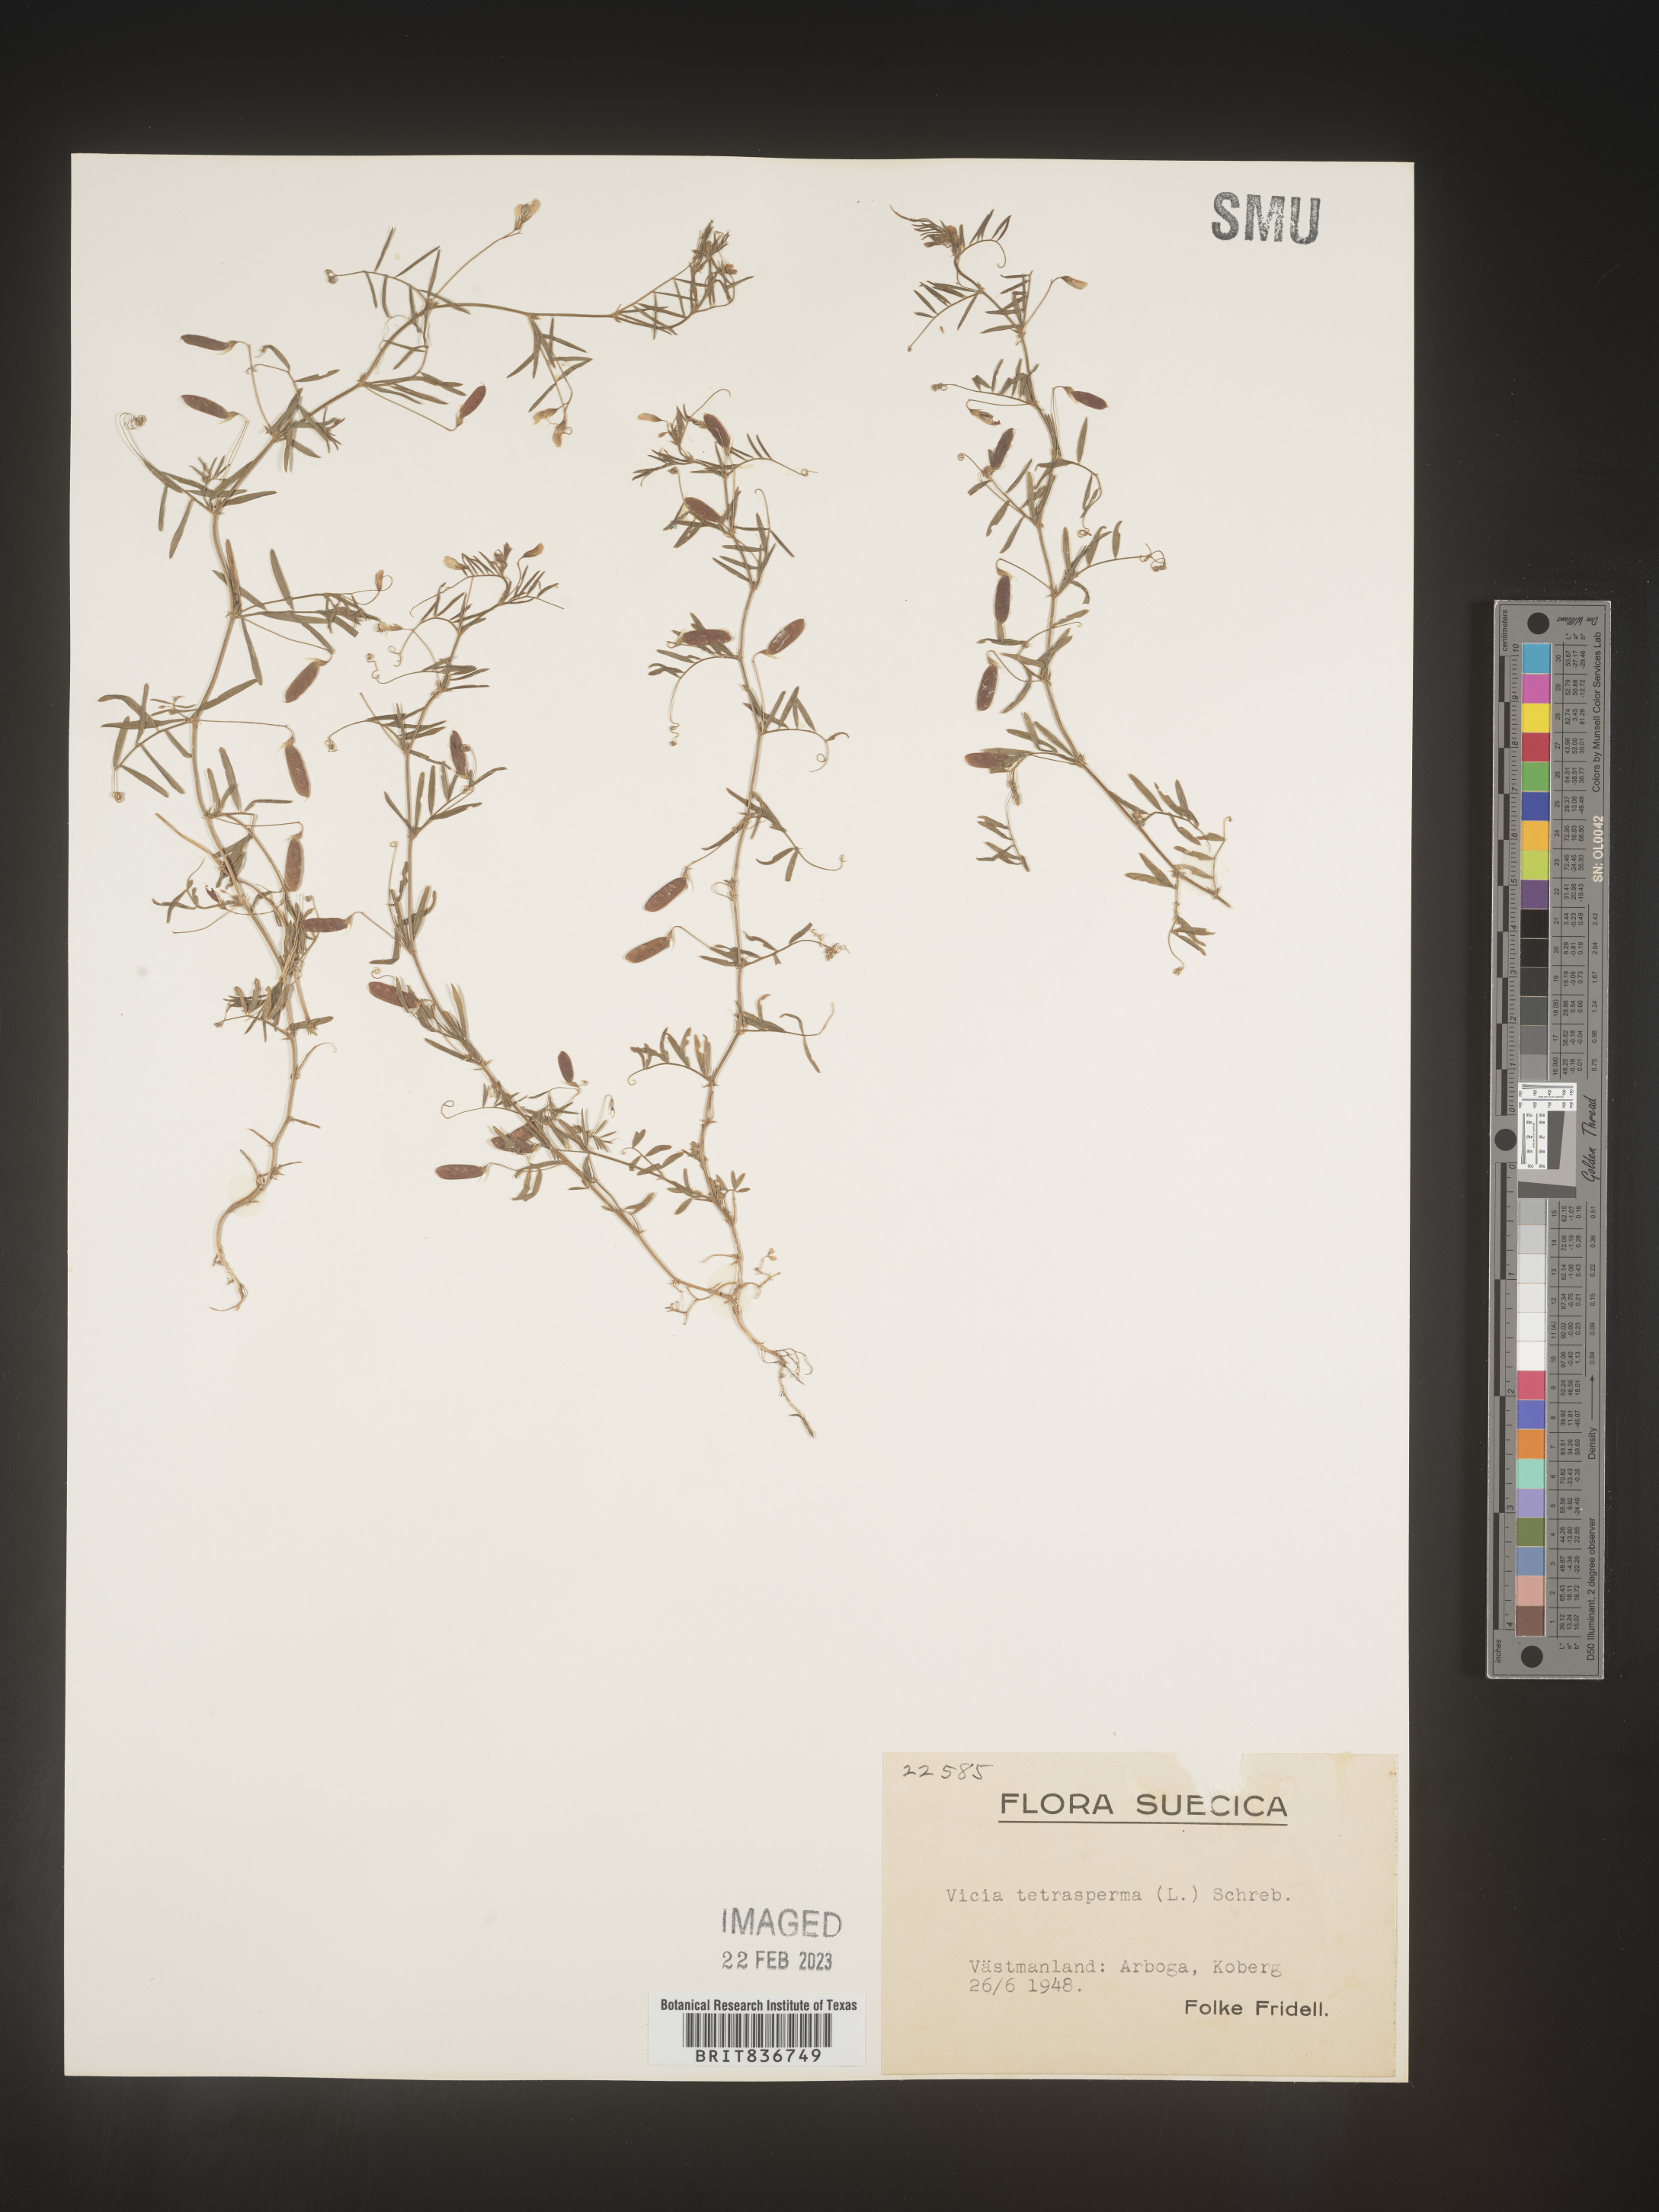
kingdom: Plantae
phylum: Tracheophyta
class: Magnoliopsida
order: Fabales
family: Fabaceae
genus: Vicia
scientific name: Vicia
